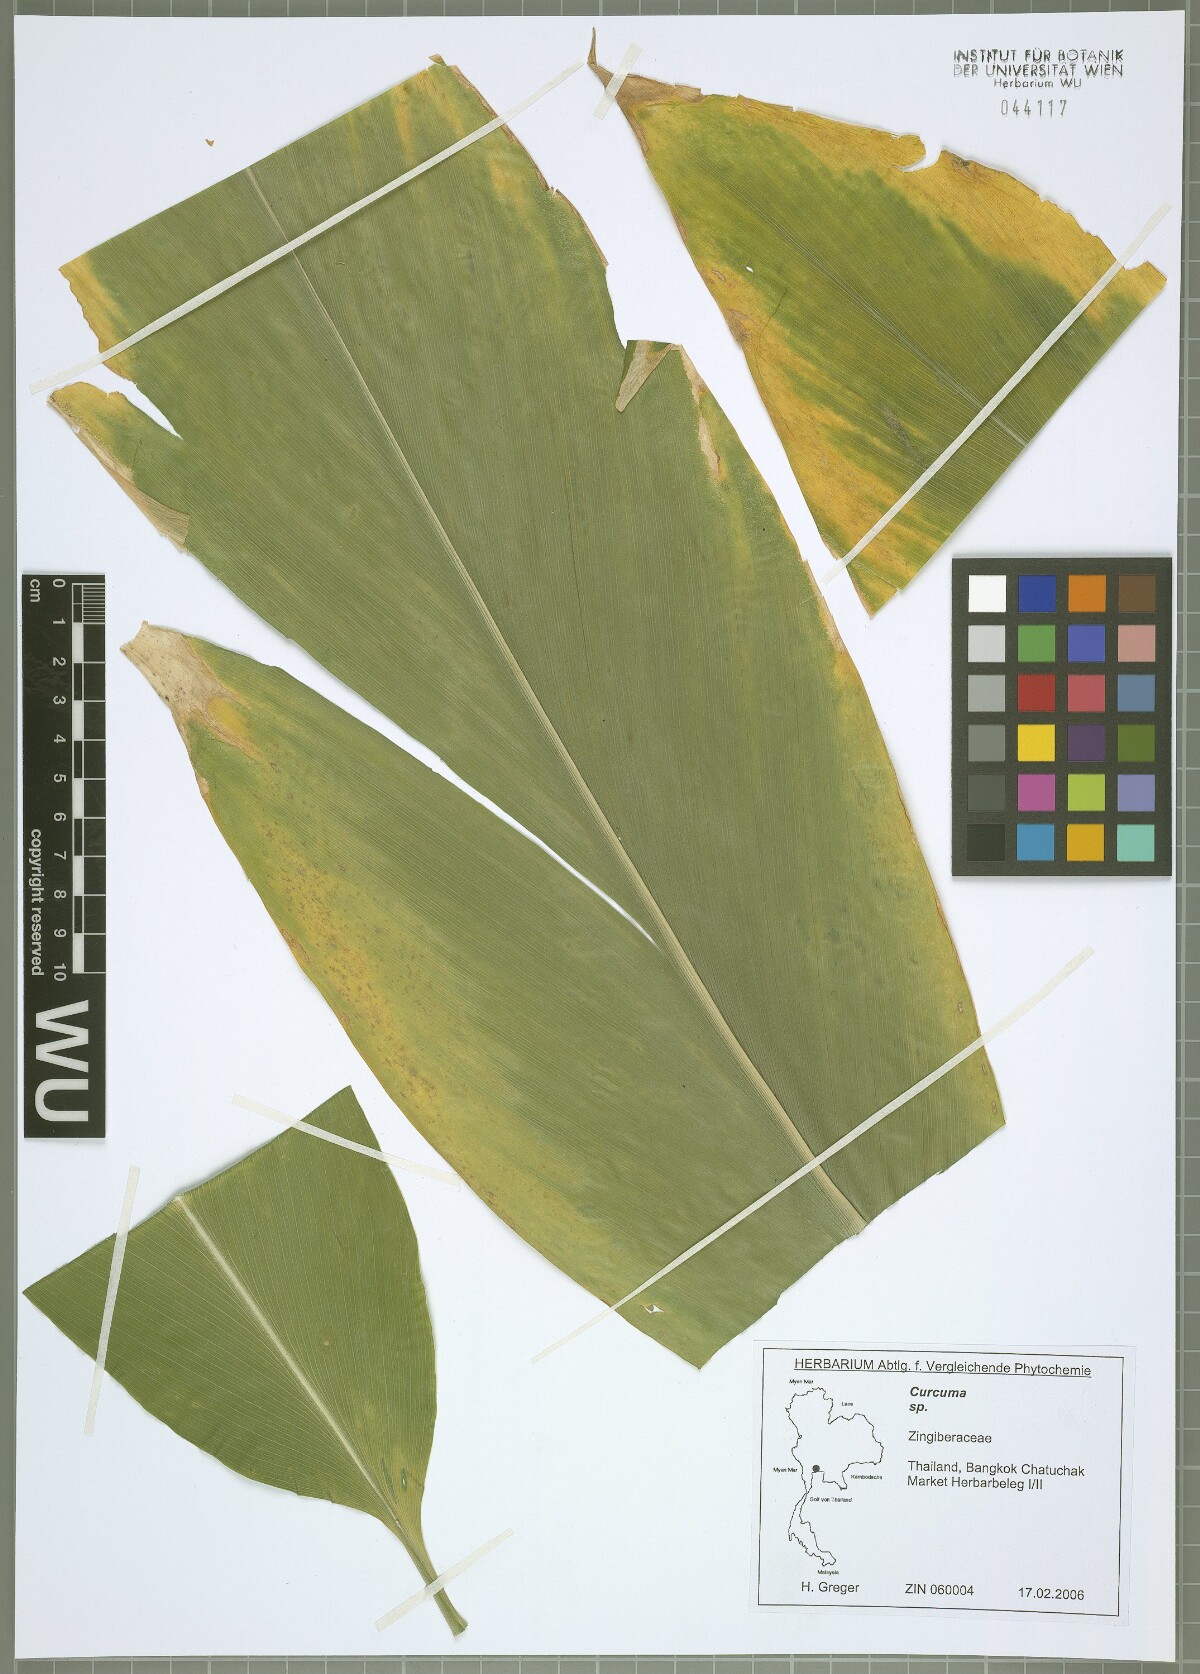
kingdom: Plantae
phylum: Tracheophyta
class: Liliopsida
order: Zingiberales
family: Zingiberaceae
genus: Curcuma
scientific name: Curcuma
